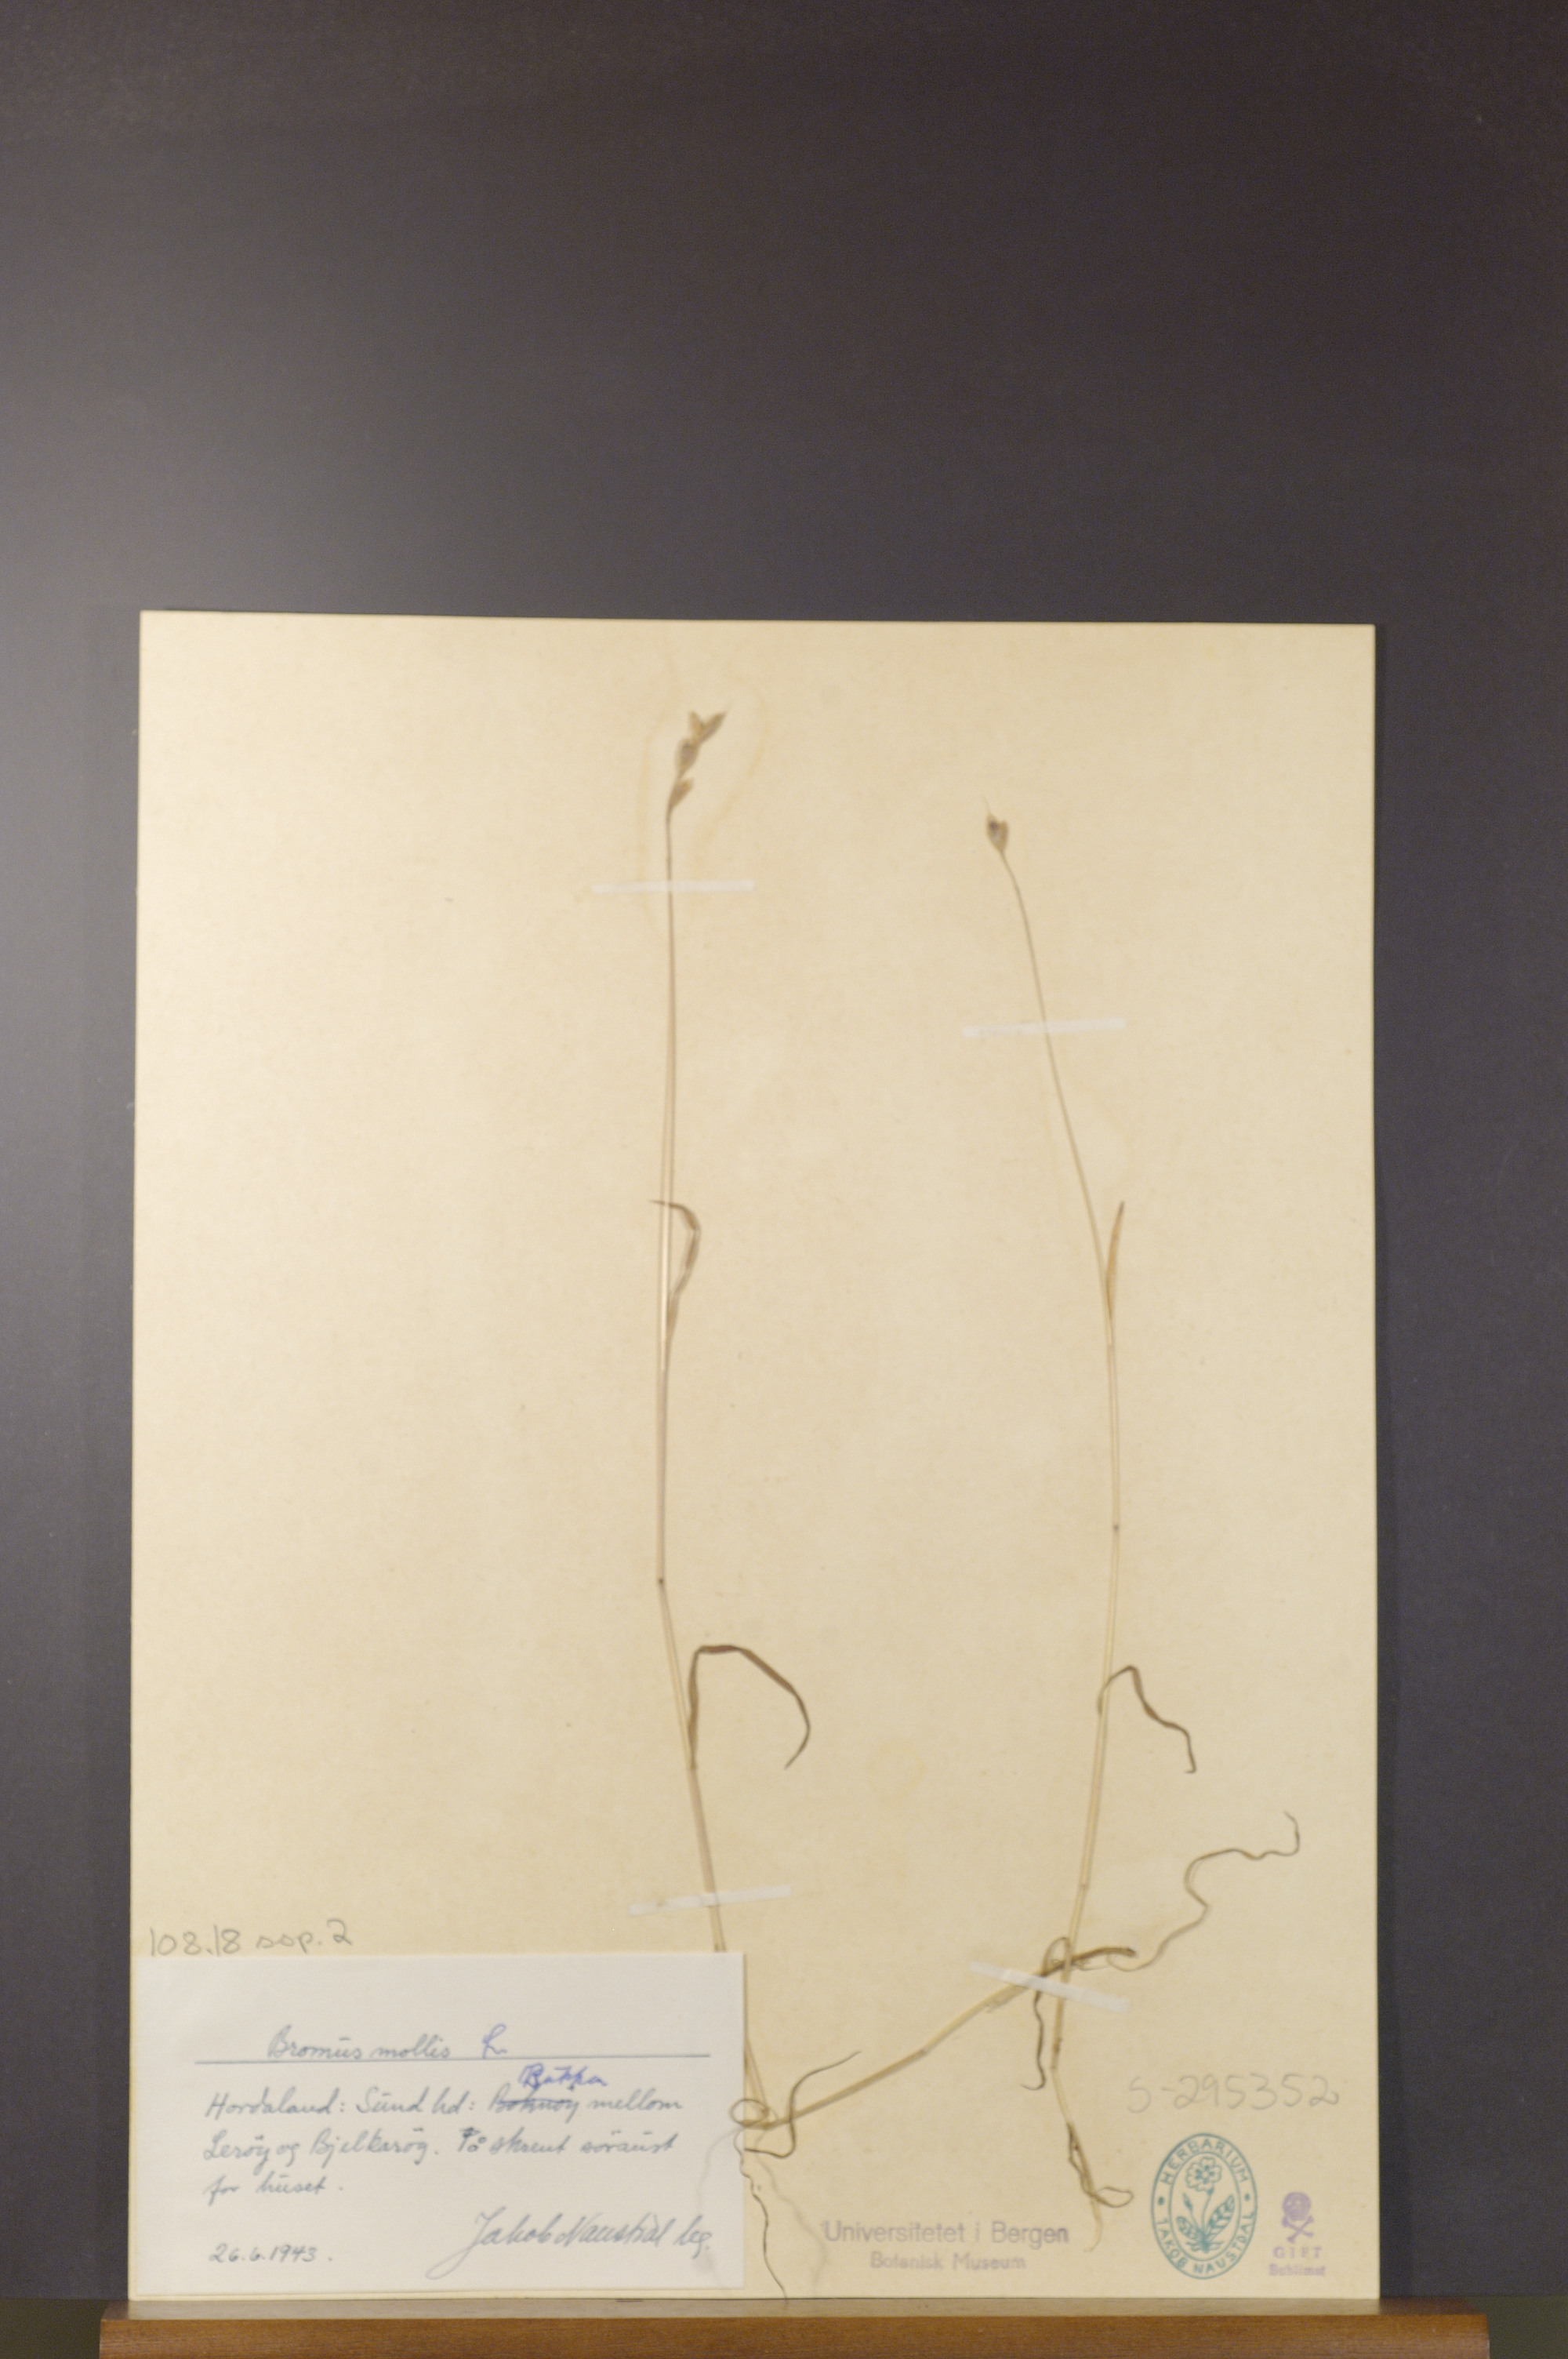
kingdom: Plantae
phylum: Tracheophyta
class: Liliopsida
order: Poales
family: Poaceae
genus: Bromus
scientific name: Bromus hordeaceus
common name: Soft brome
